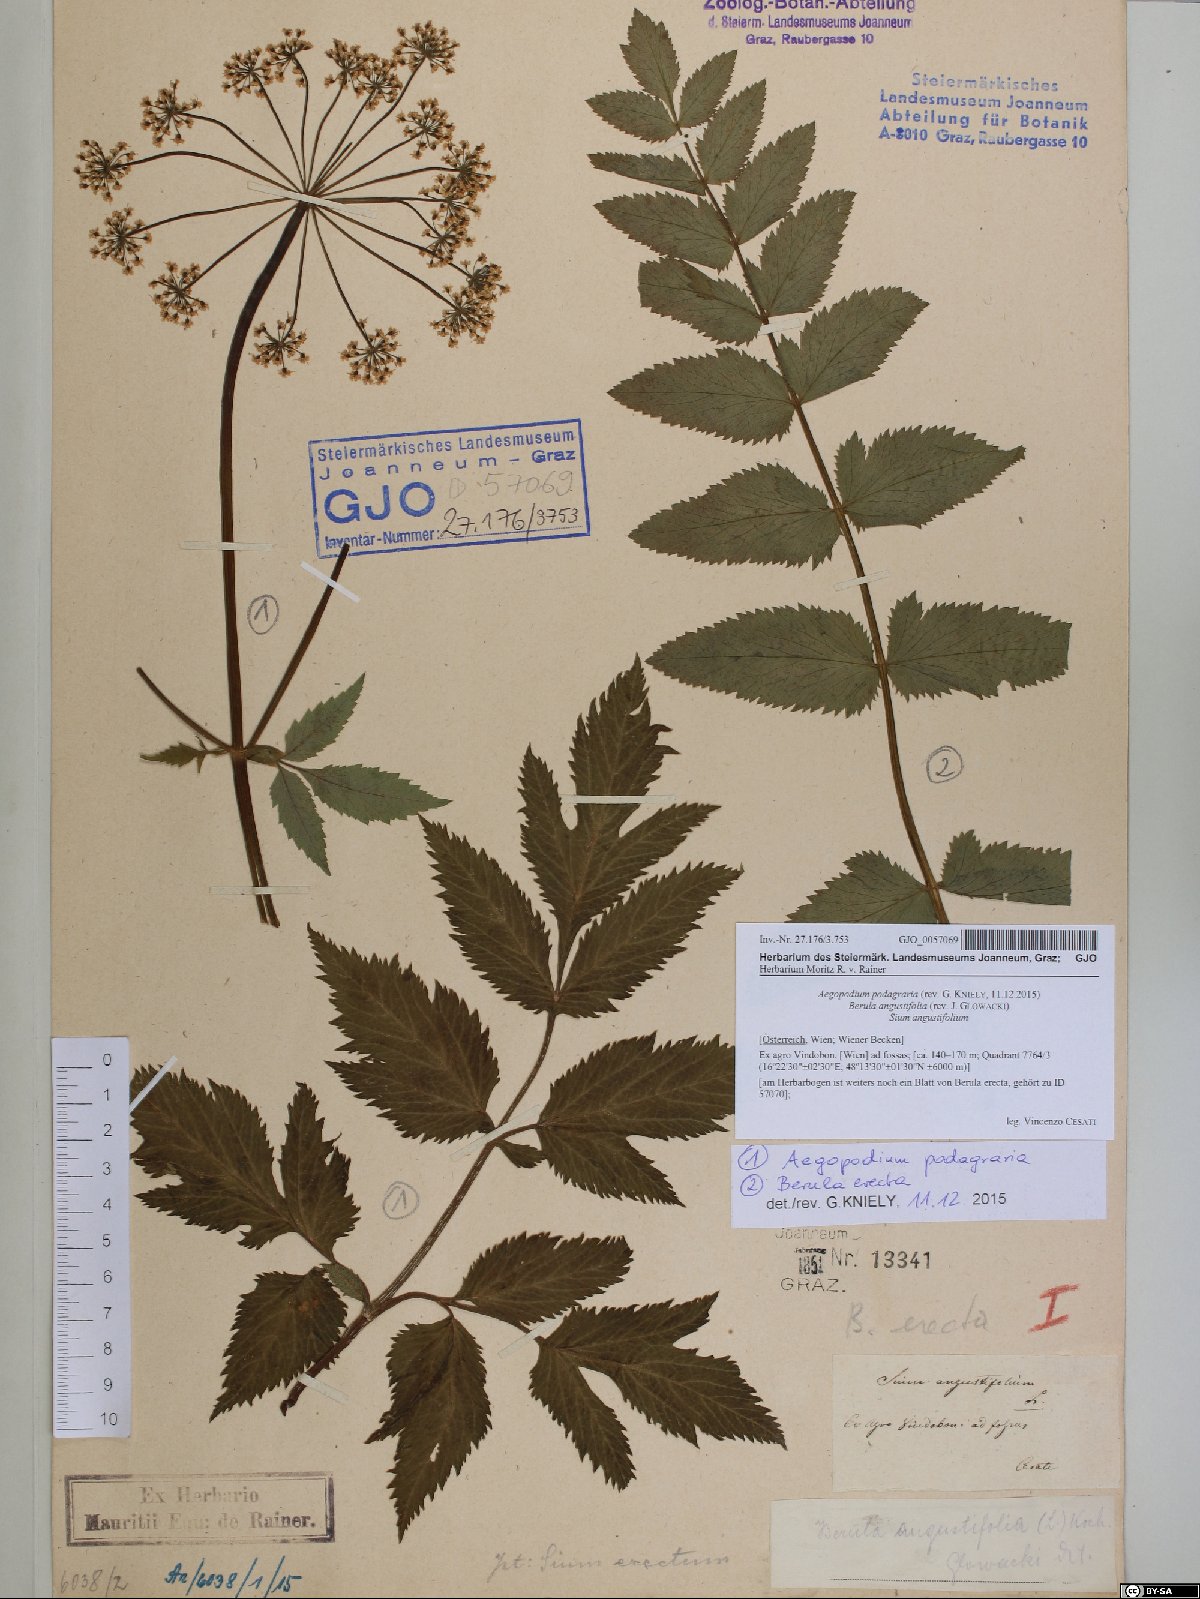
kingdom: Plantae
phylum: Tracheophyta
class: Magnoliopsida
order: Apiales
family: Apiaceae
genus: Aegopodium
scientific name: Aegopodium podagraria
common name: Ground-elder
